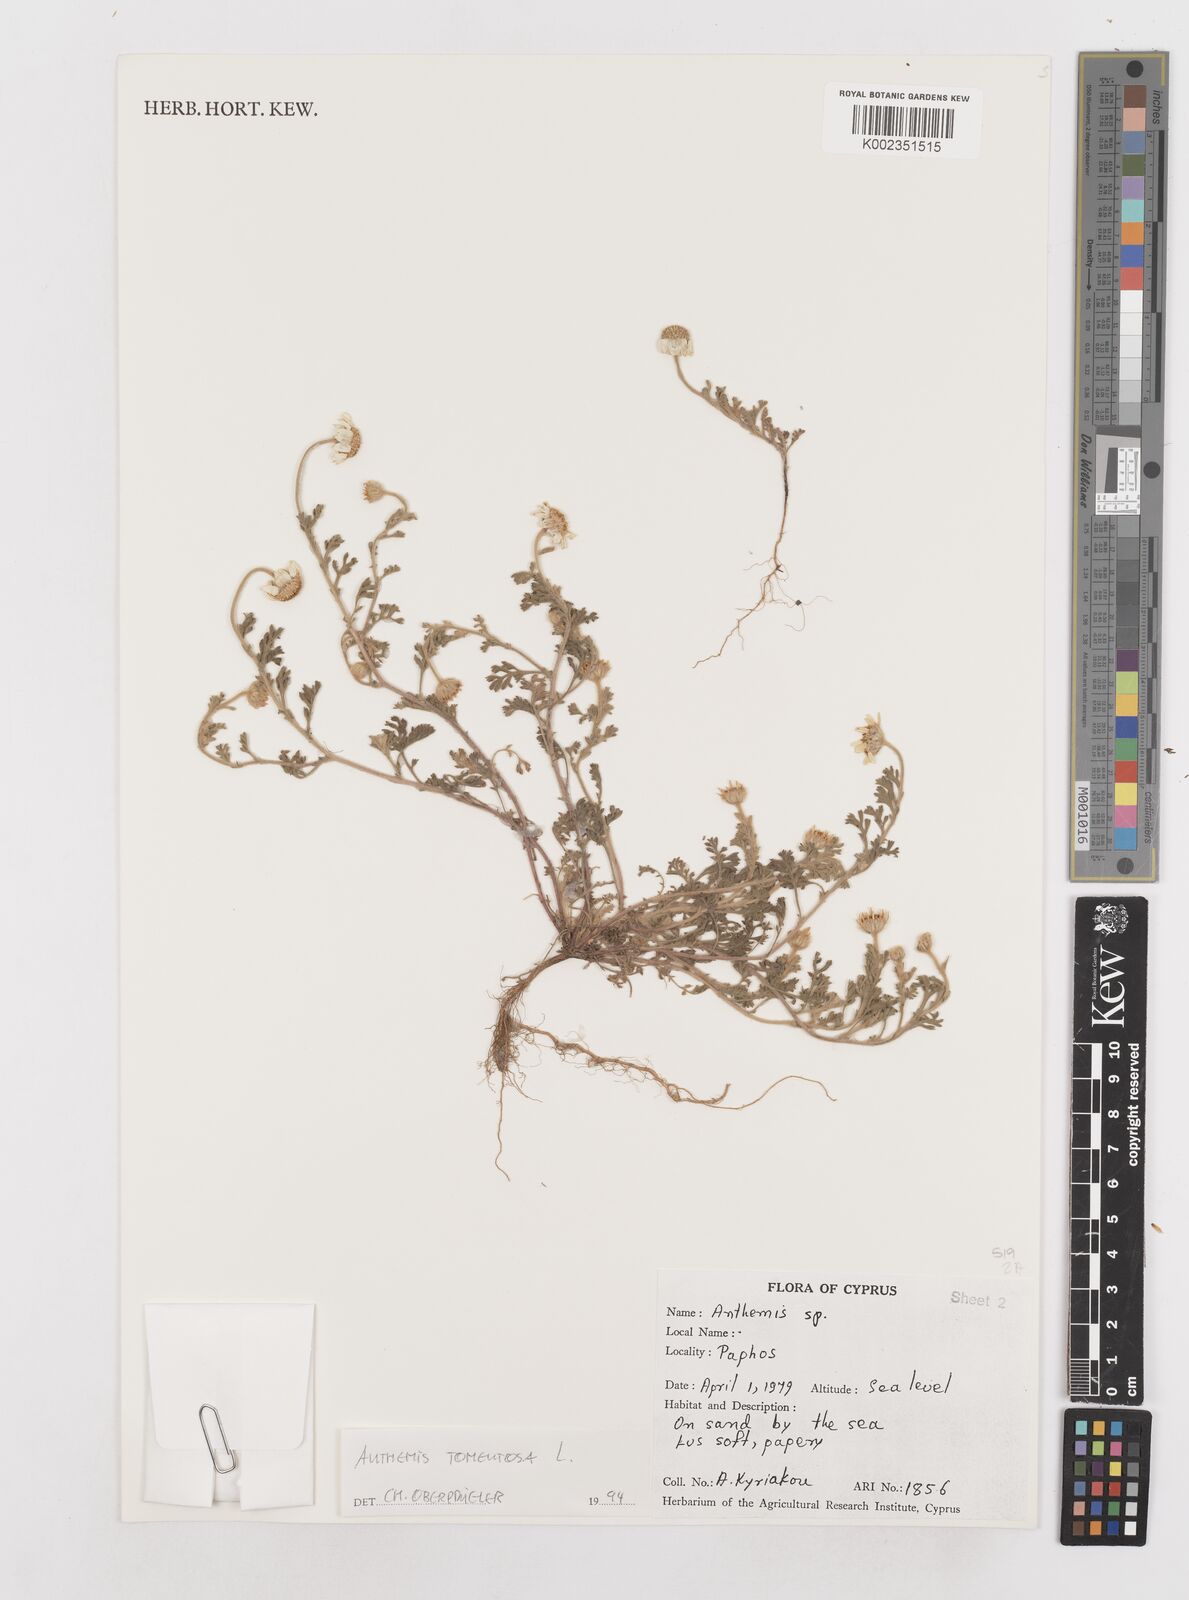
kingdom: Plantae
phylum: Tracheophyta
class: Magnoliopsida
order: Asterales
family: Asteraceae
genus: Anthemis
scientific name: Anthemis tomentosa
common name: Woolly chamomile
